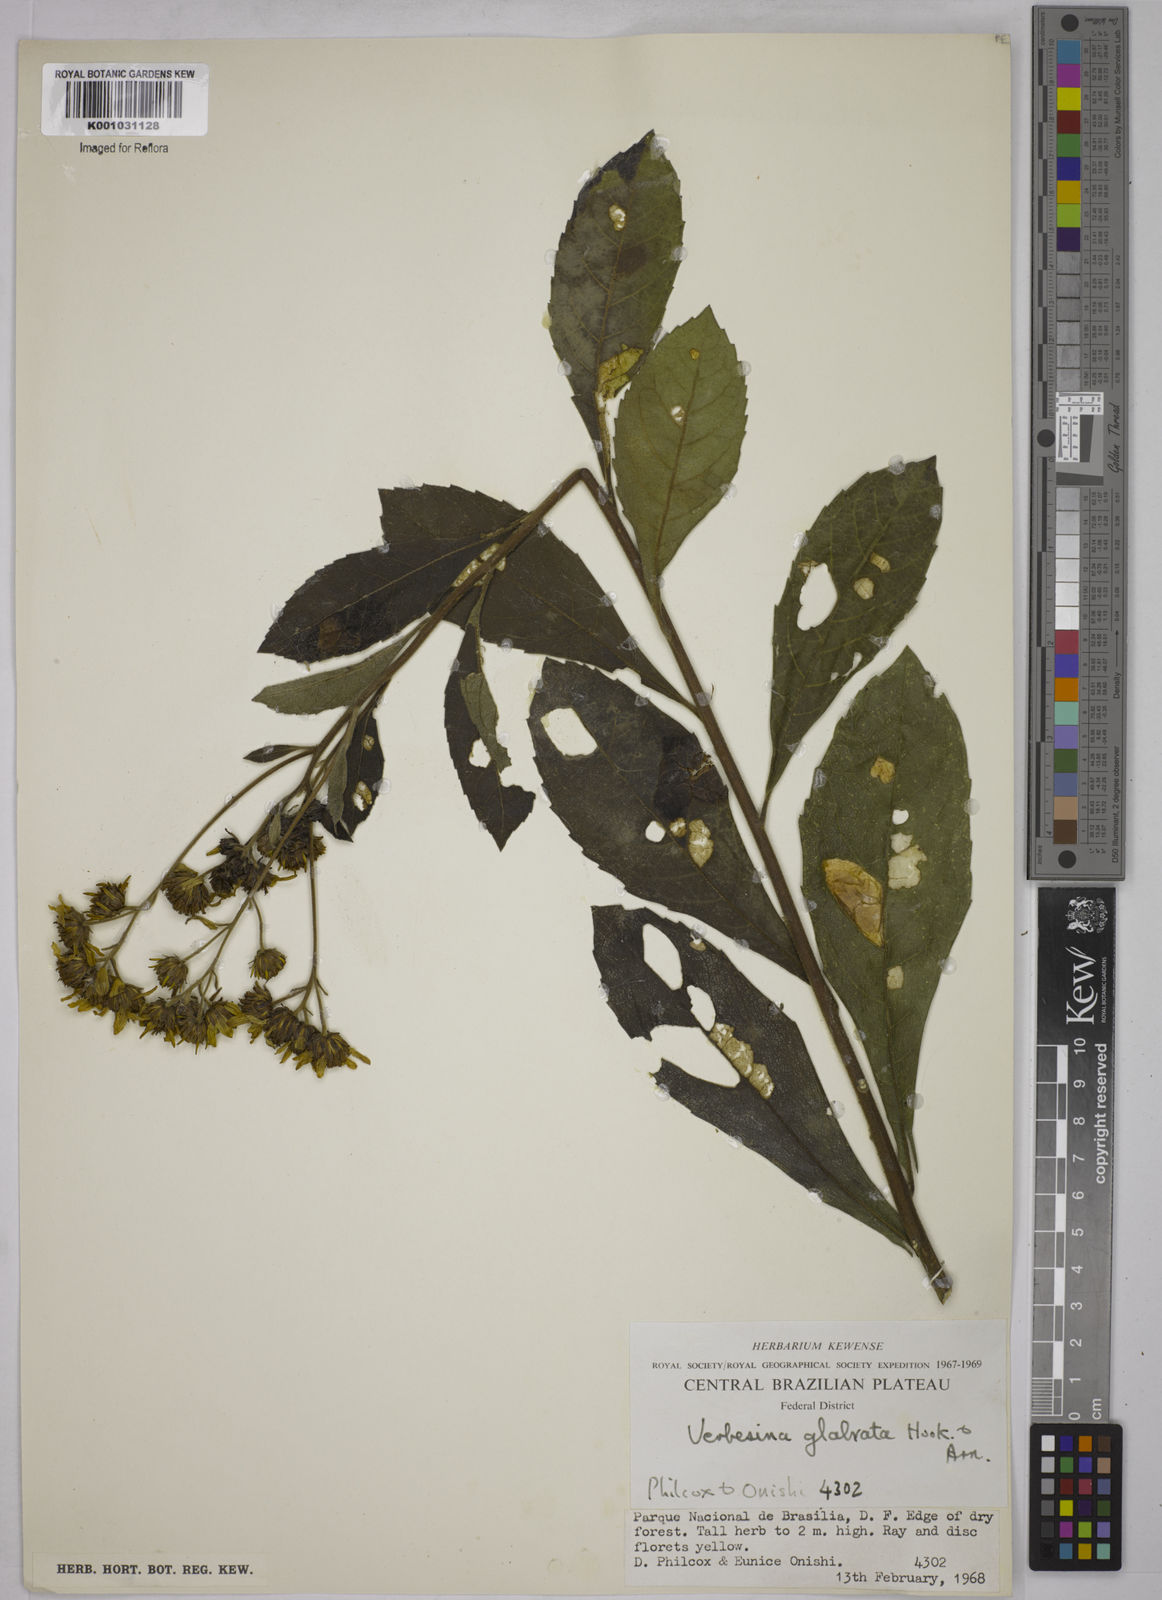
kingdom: Plantae
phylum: Tracheophyta
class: Magnoliopsida
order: Asterales
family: Asteraceae
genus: Verbesina
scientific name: Verbesina glabrata
